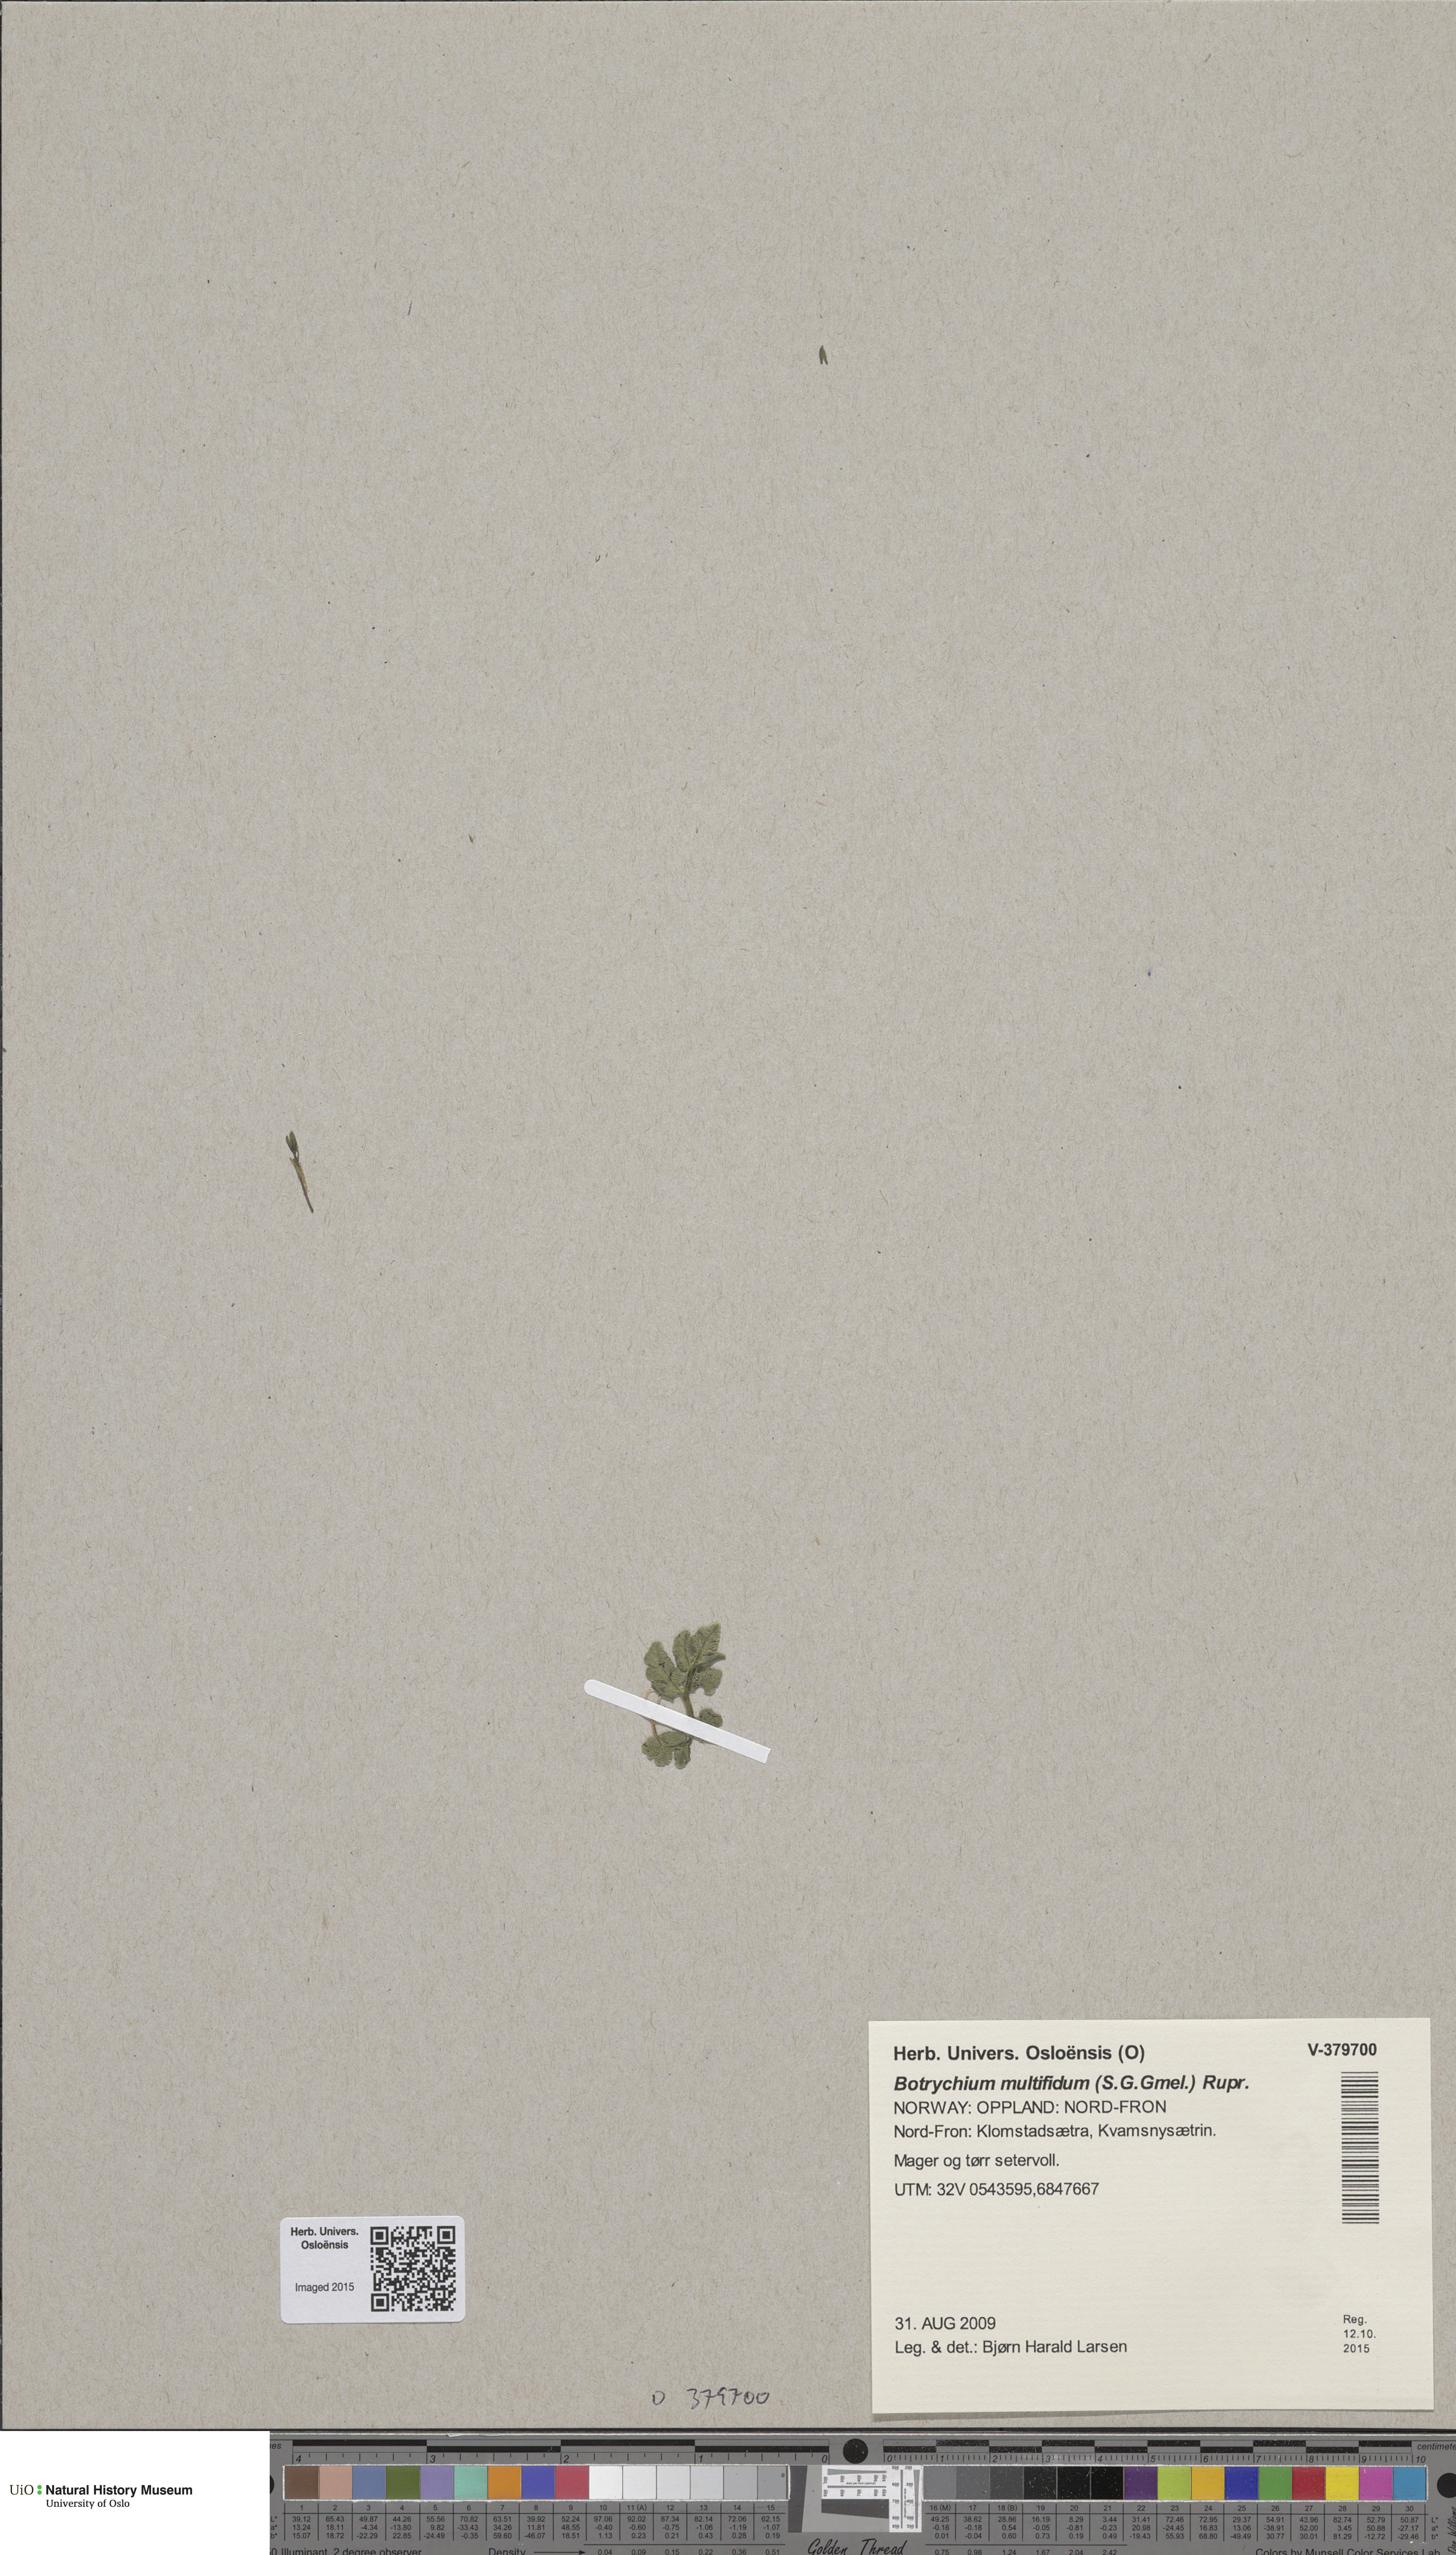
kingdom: Plantae
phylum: Tracheophyta
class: Polypodiopsida
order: Ophioglossales
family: Ophioglossaceae
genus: Sceptridium
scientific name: Sceptridium multifidum
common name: Leathery grape fern
